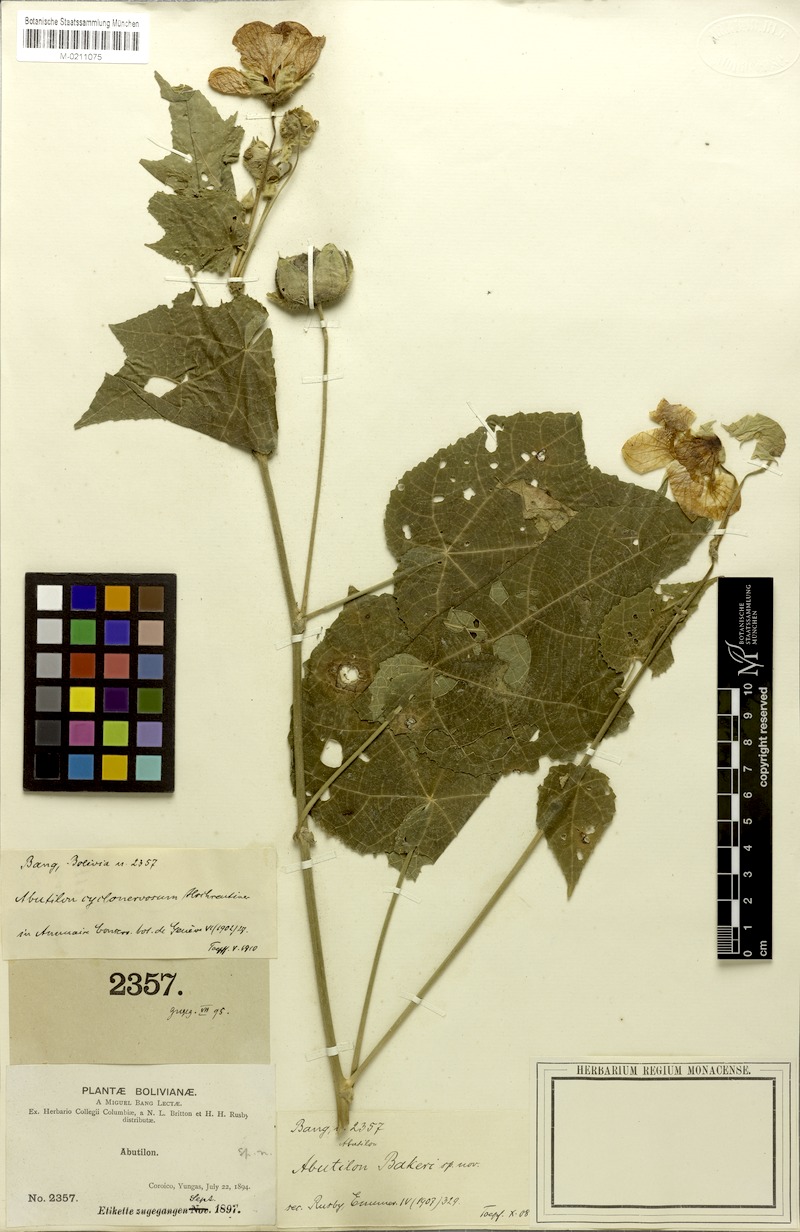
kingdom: Plantae
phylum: Tracheophyta
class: Magnoliopsida
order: Malvales
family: Malvaceae
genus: Callianthe
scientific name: Callianthe cyclonervosa
